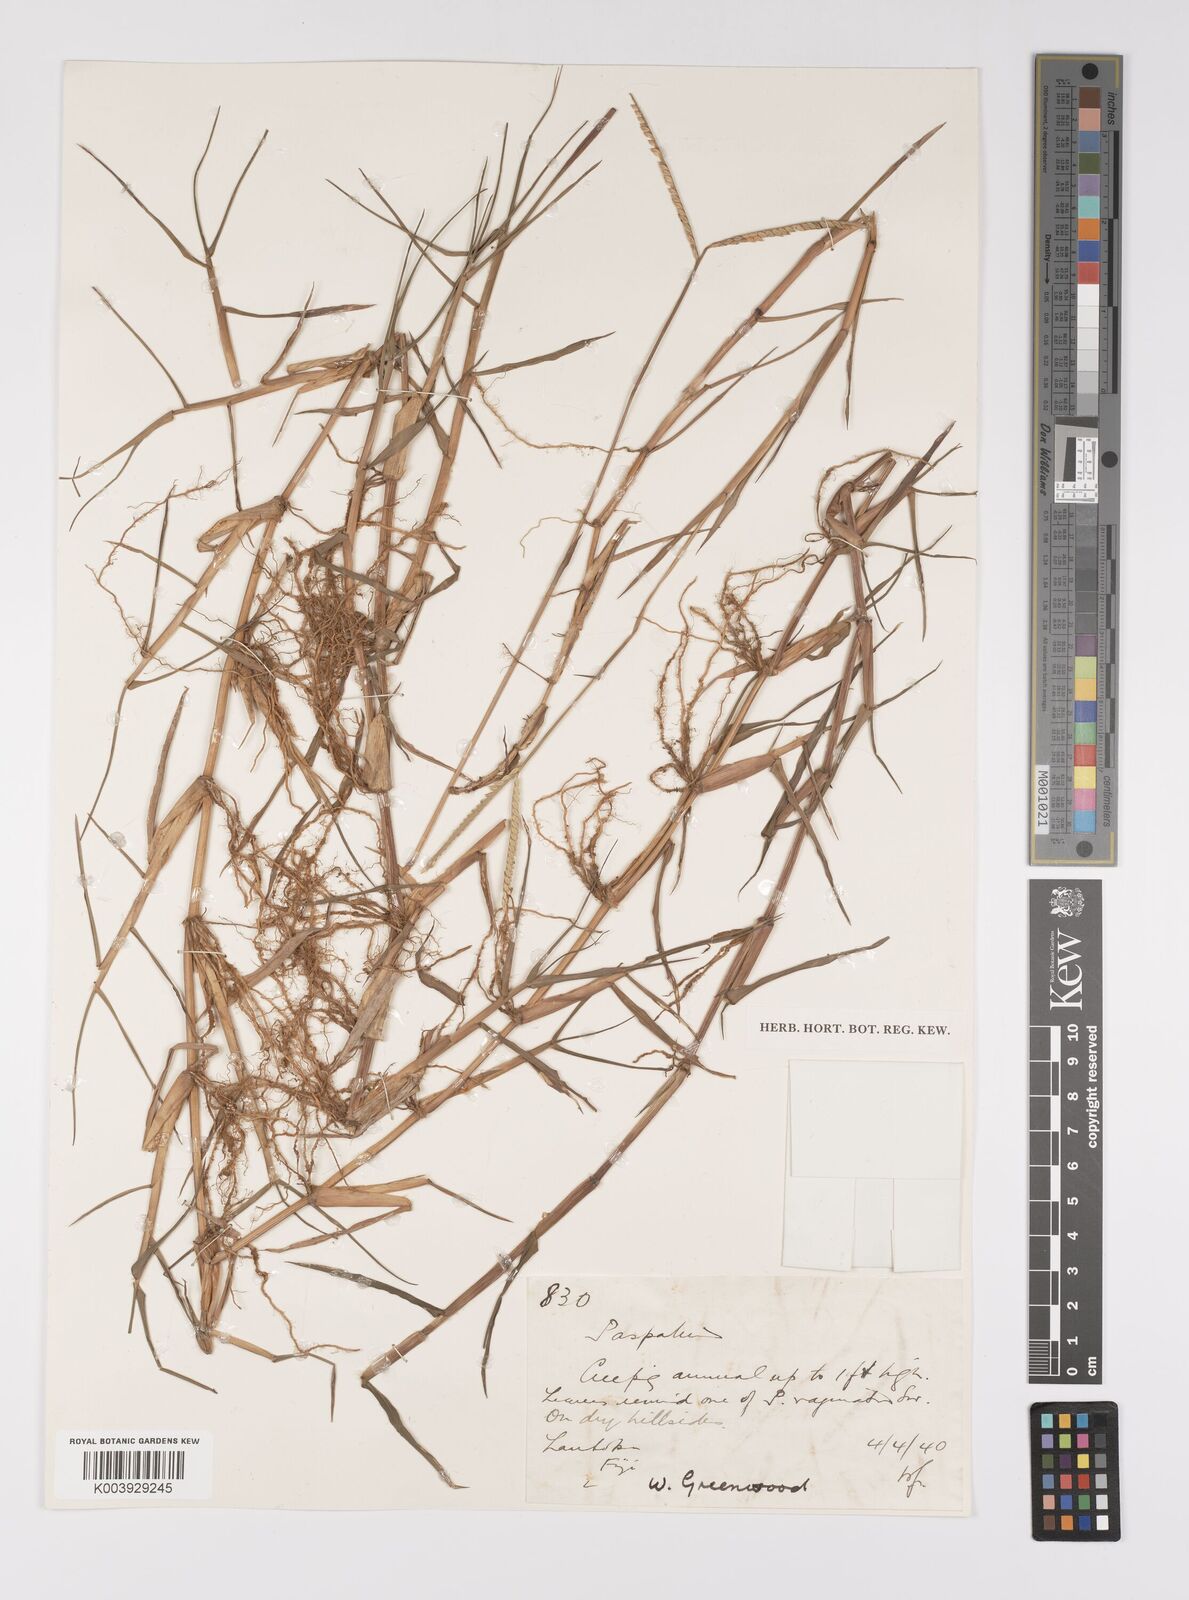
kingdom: Plantae
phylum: Tracheophyta
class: Liliopsida
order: Poales
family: Poaceae
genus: Paspalum
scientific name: Paspalum distichum
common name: Knotgrass
